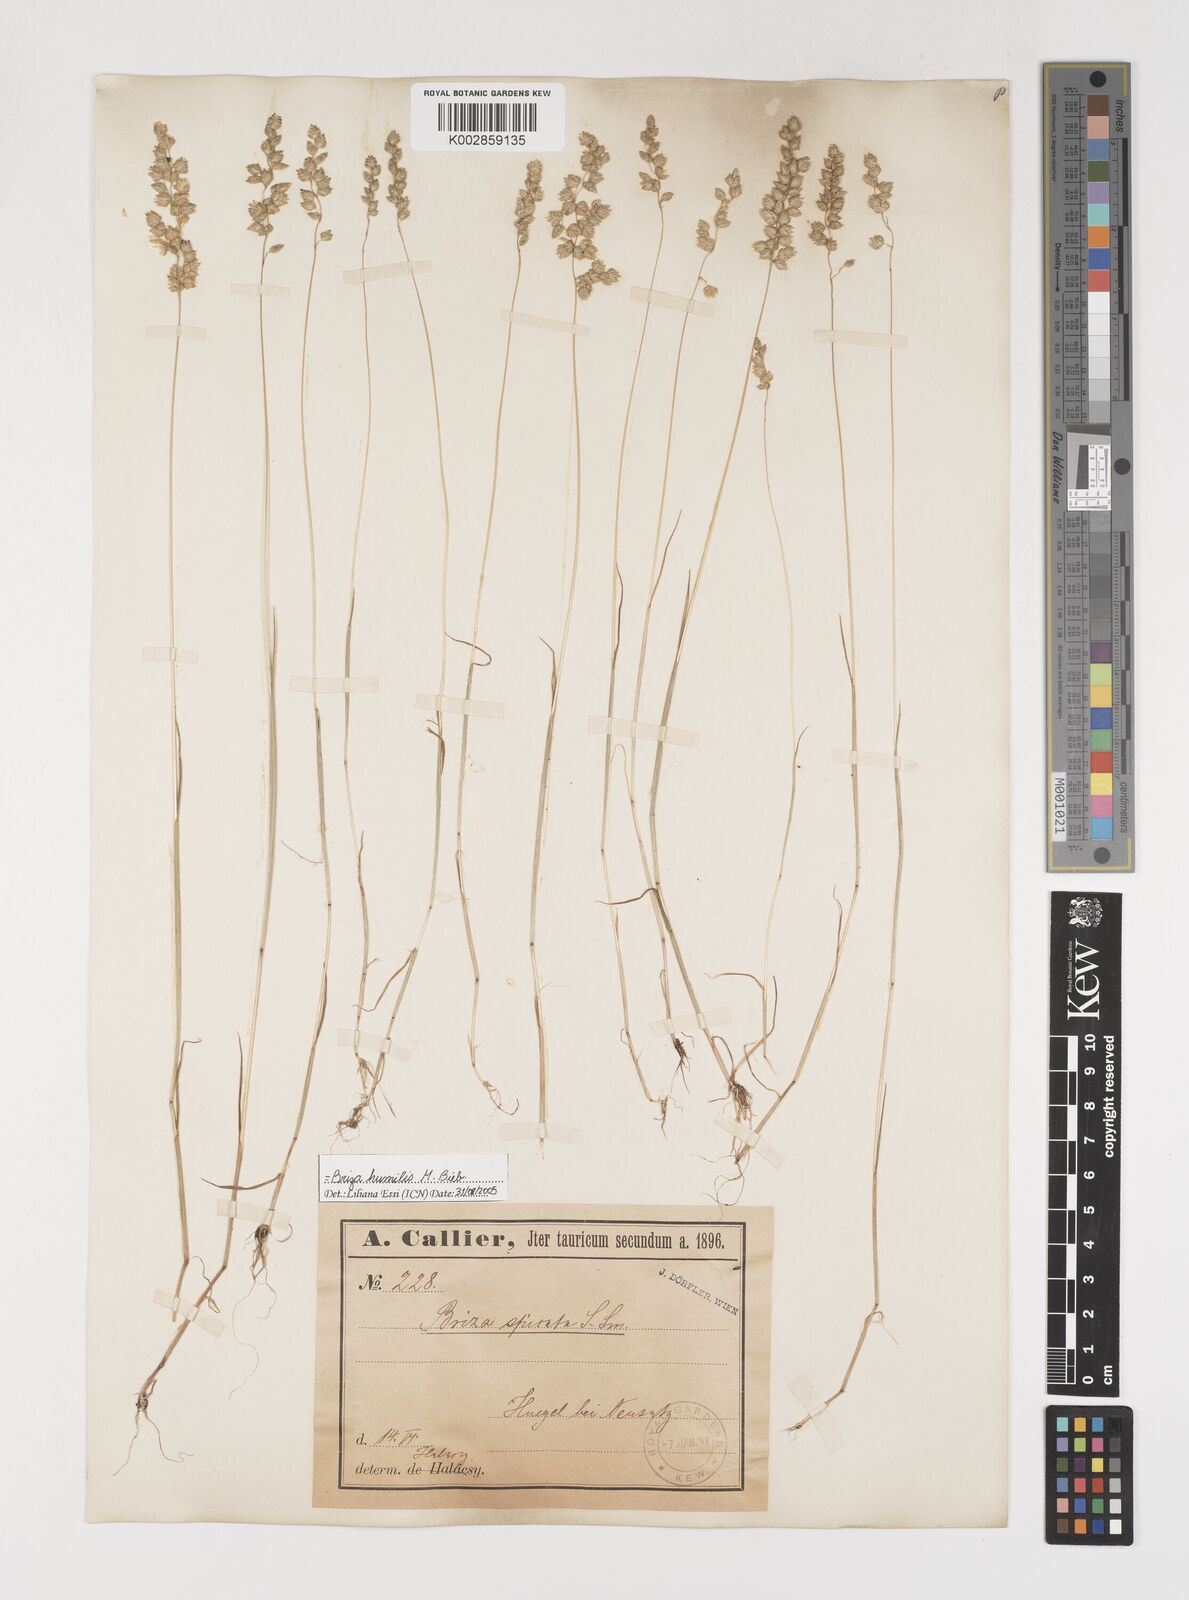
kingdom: Plantae
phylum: Tracheophyta
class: Liliopsida
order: Poales
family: Poaceae
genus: Briza
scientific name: Briza humilis
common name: Spiked quaking grass
